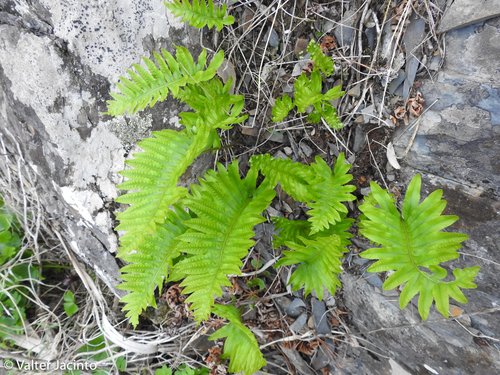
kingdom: Plantae
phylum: Tracheophyta
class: Polypodiopsida
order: Polypodiales
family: Polypodiaceae
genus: Polypodium
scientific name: Polypodium cambricum
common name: Southern polypody
